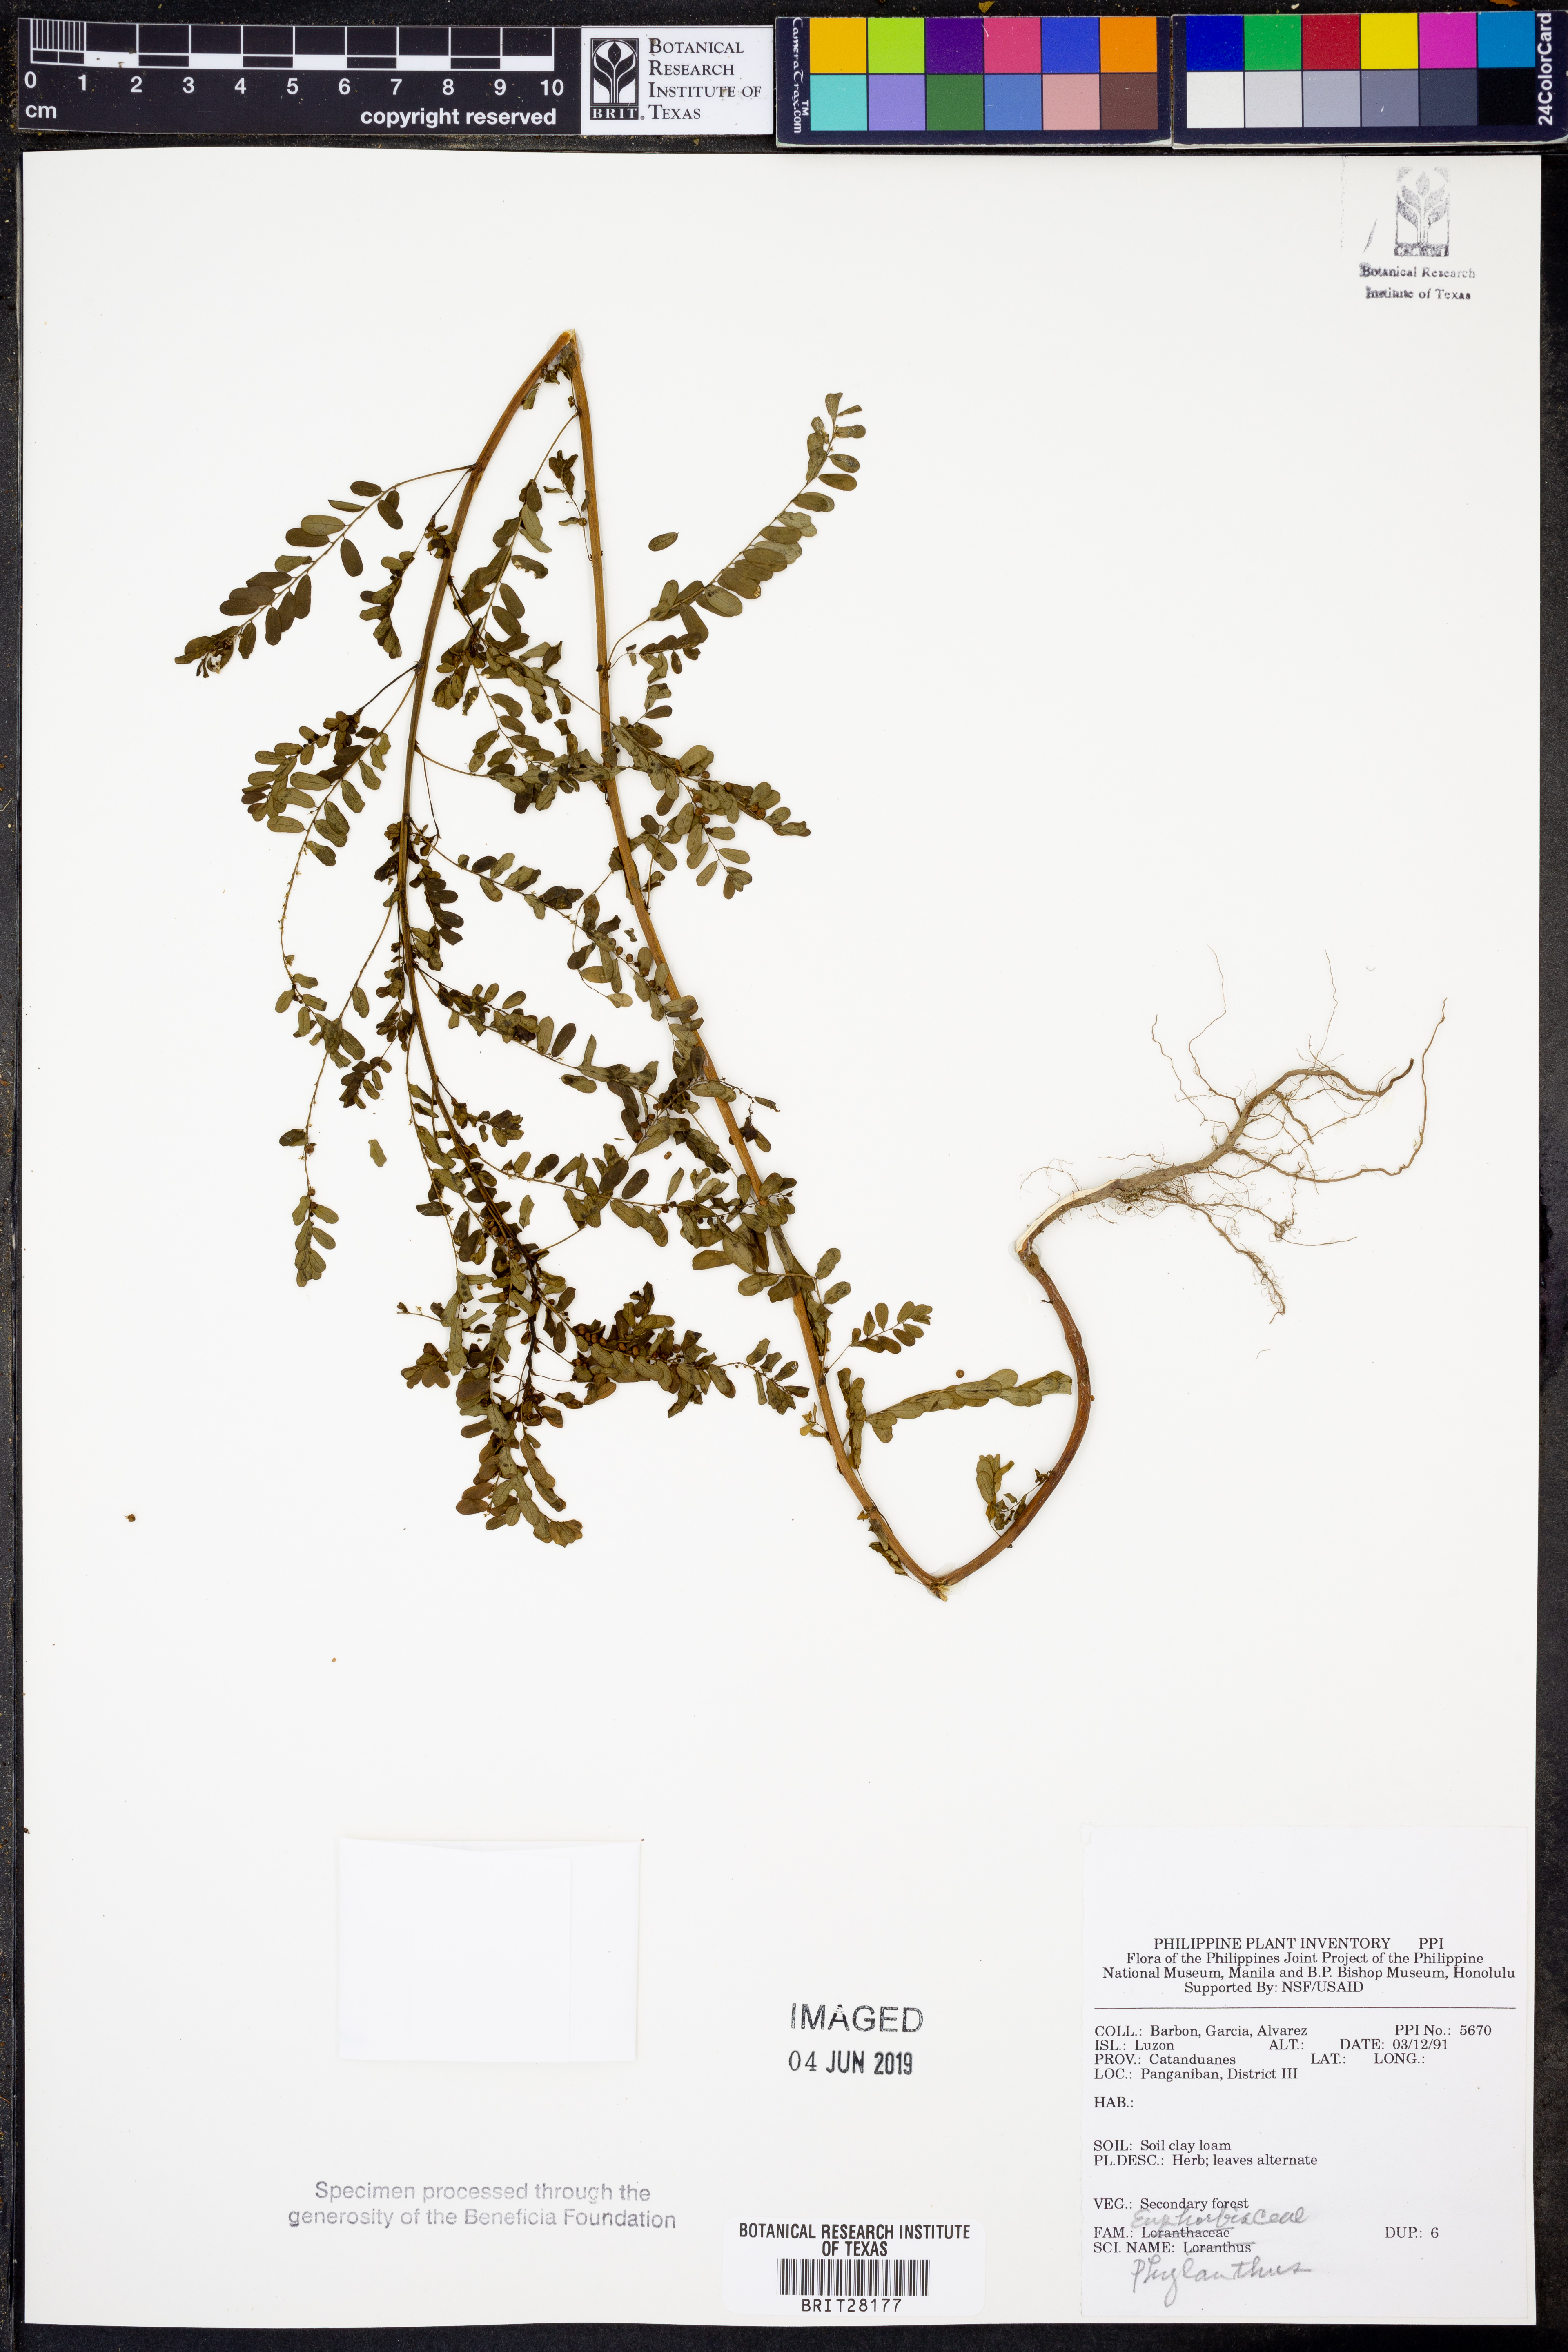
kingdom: Plantae
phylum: Tracheophyta
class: Magnoliopsida
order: Malpighiales
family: Phyllanthaceae
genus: Phyllanthus
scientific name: Phyllanthus
